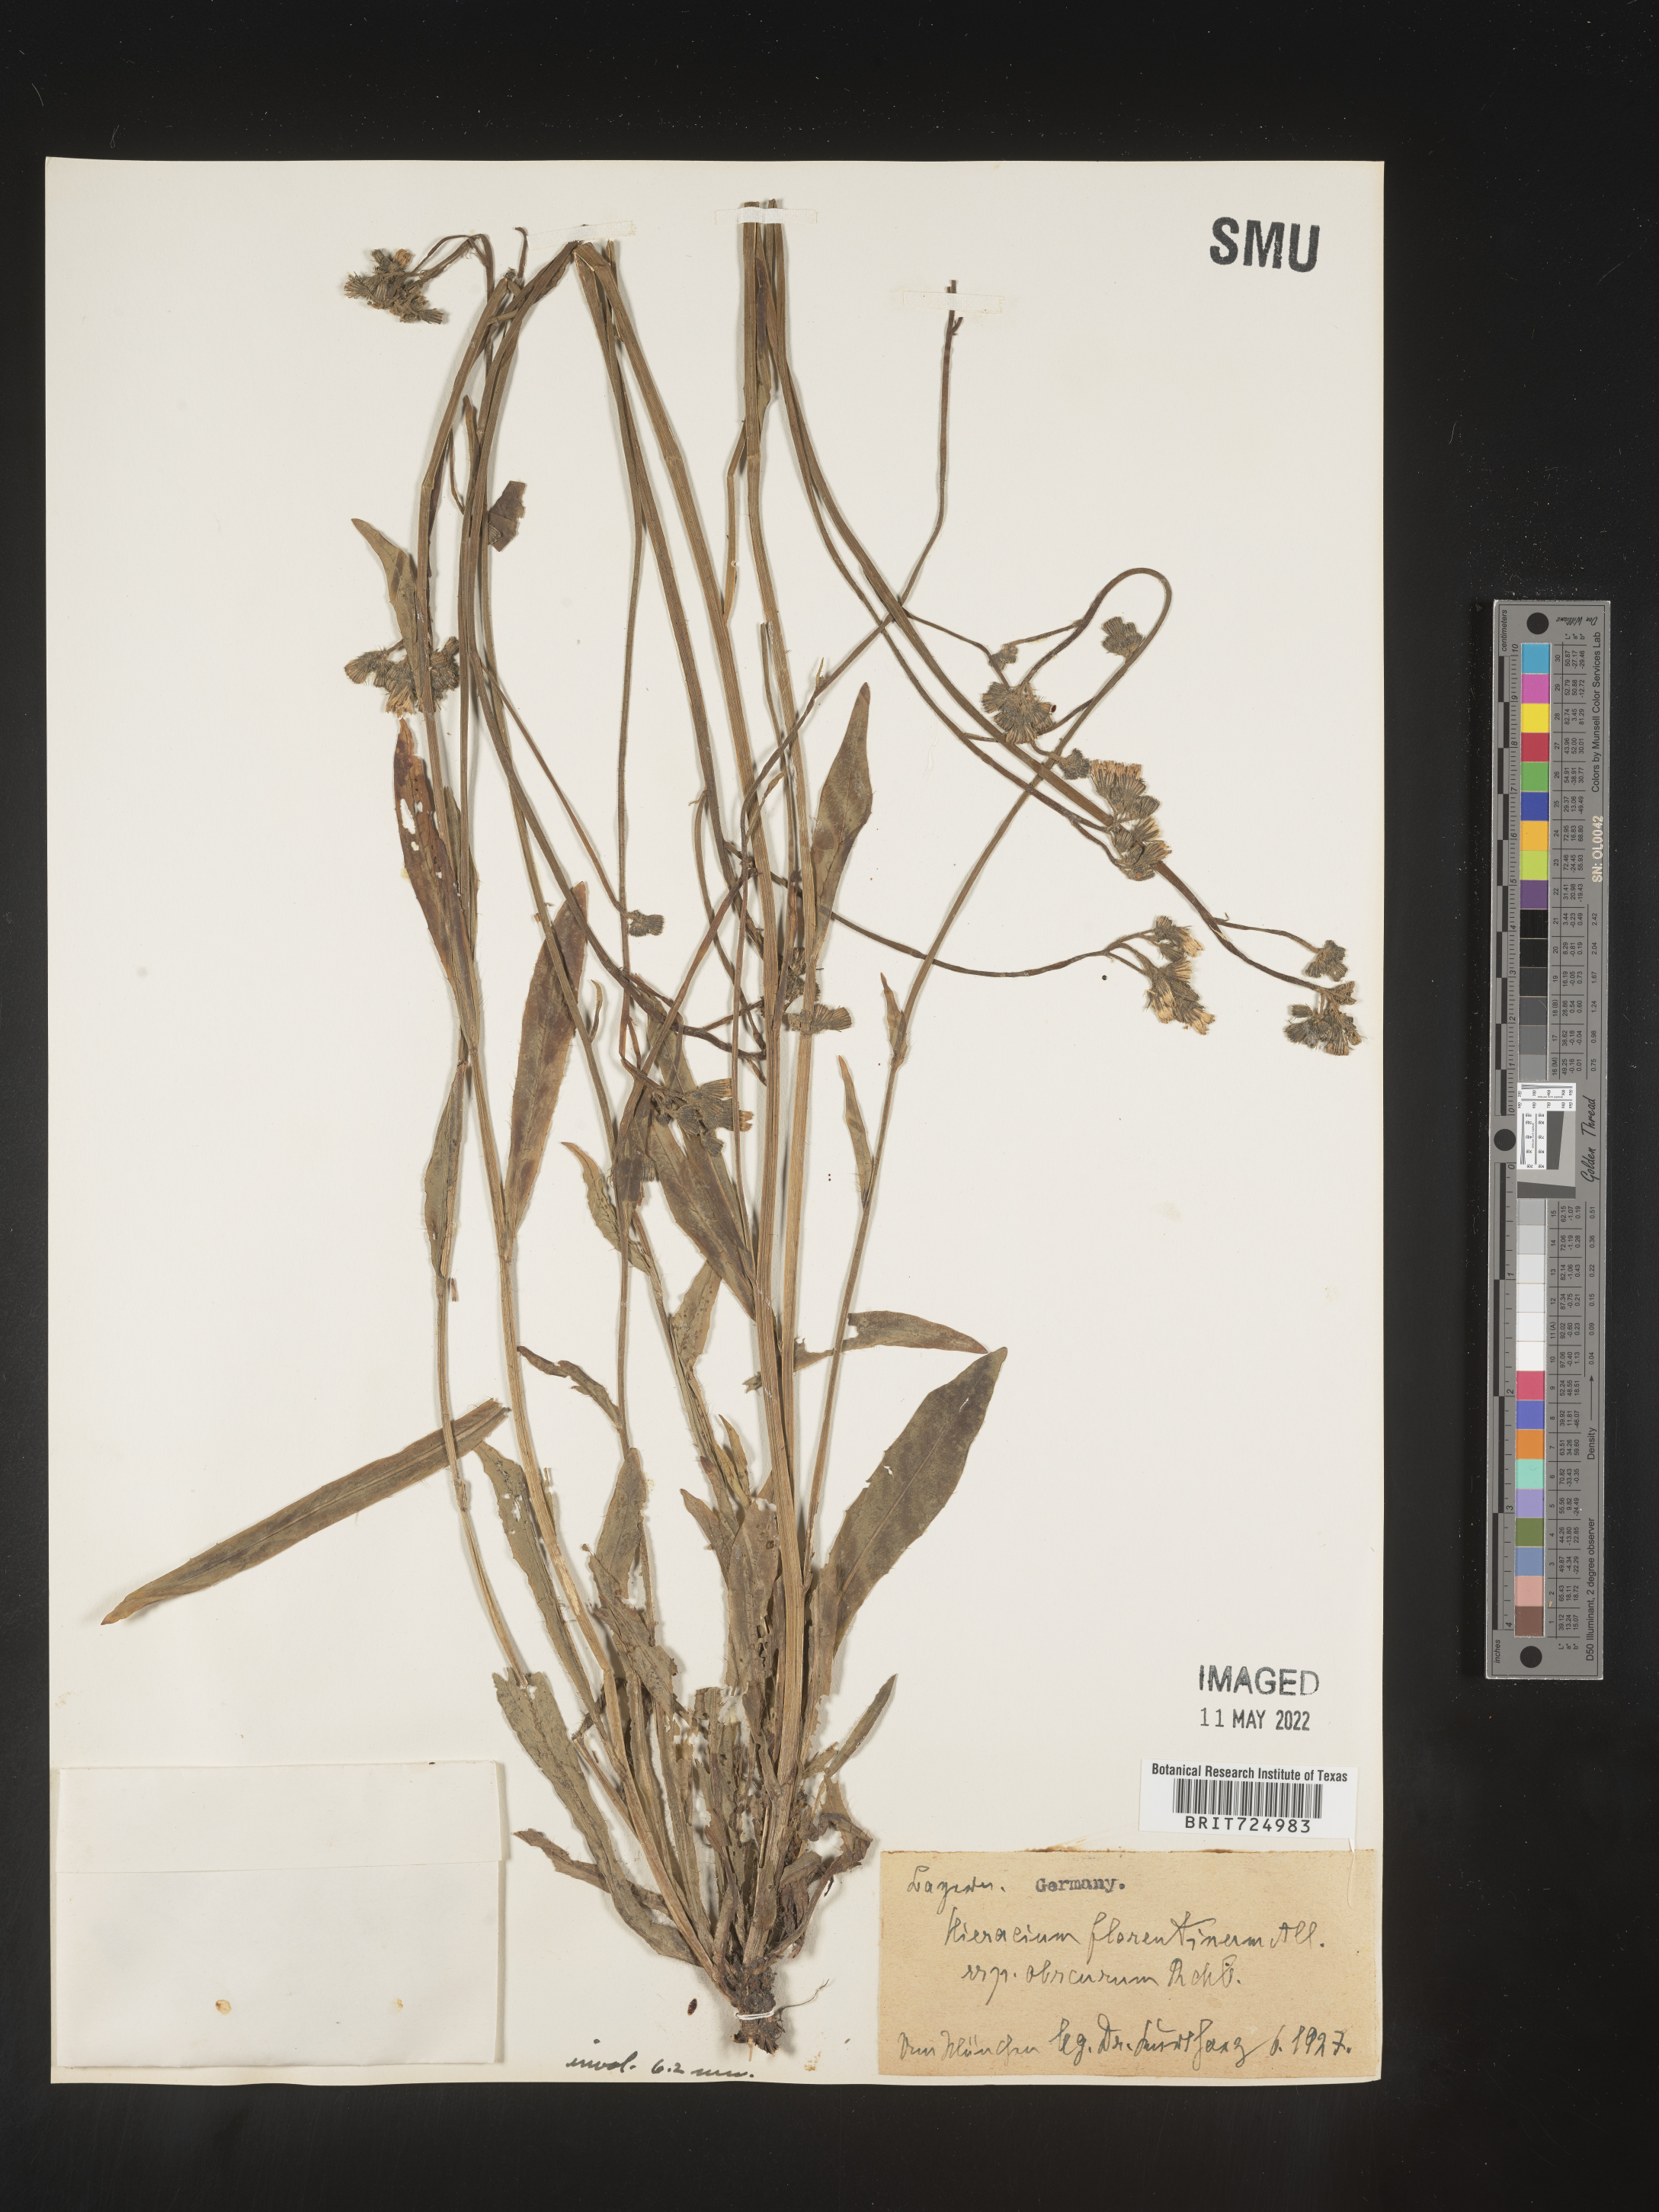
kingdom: Plantae
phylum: Tracheophyta
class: Magnoliopsida
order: Asterales
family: Asteraceae
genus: Hieracium
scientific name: Hieracium
